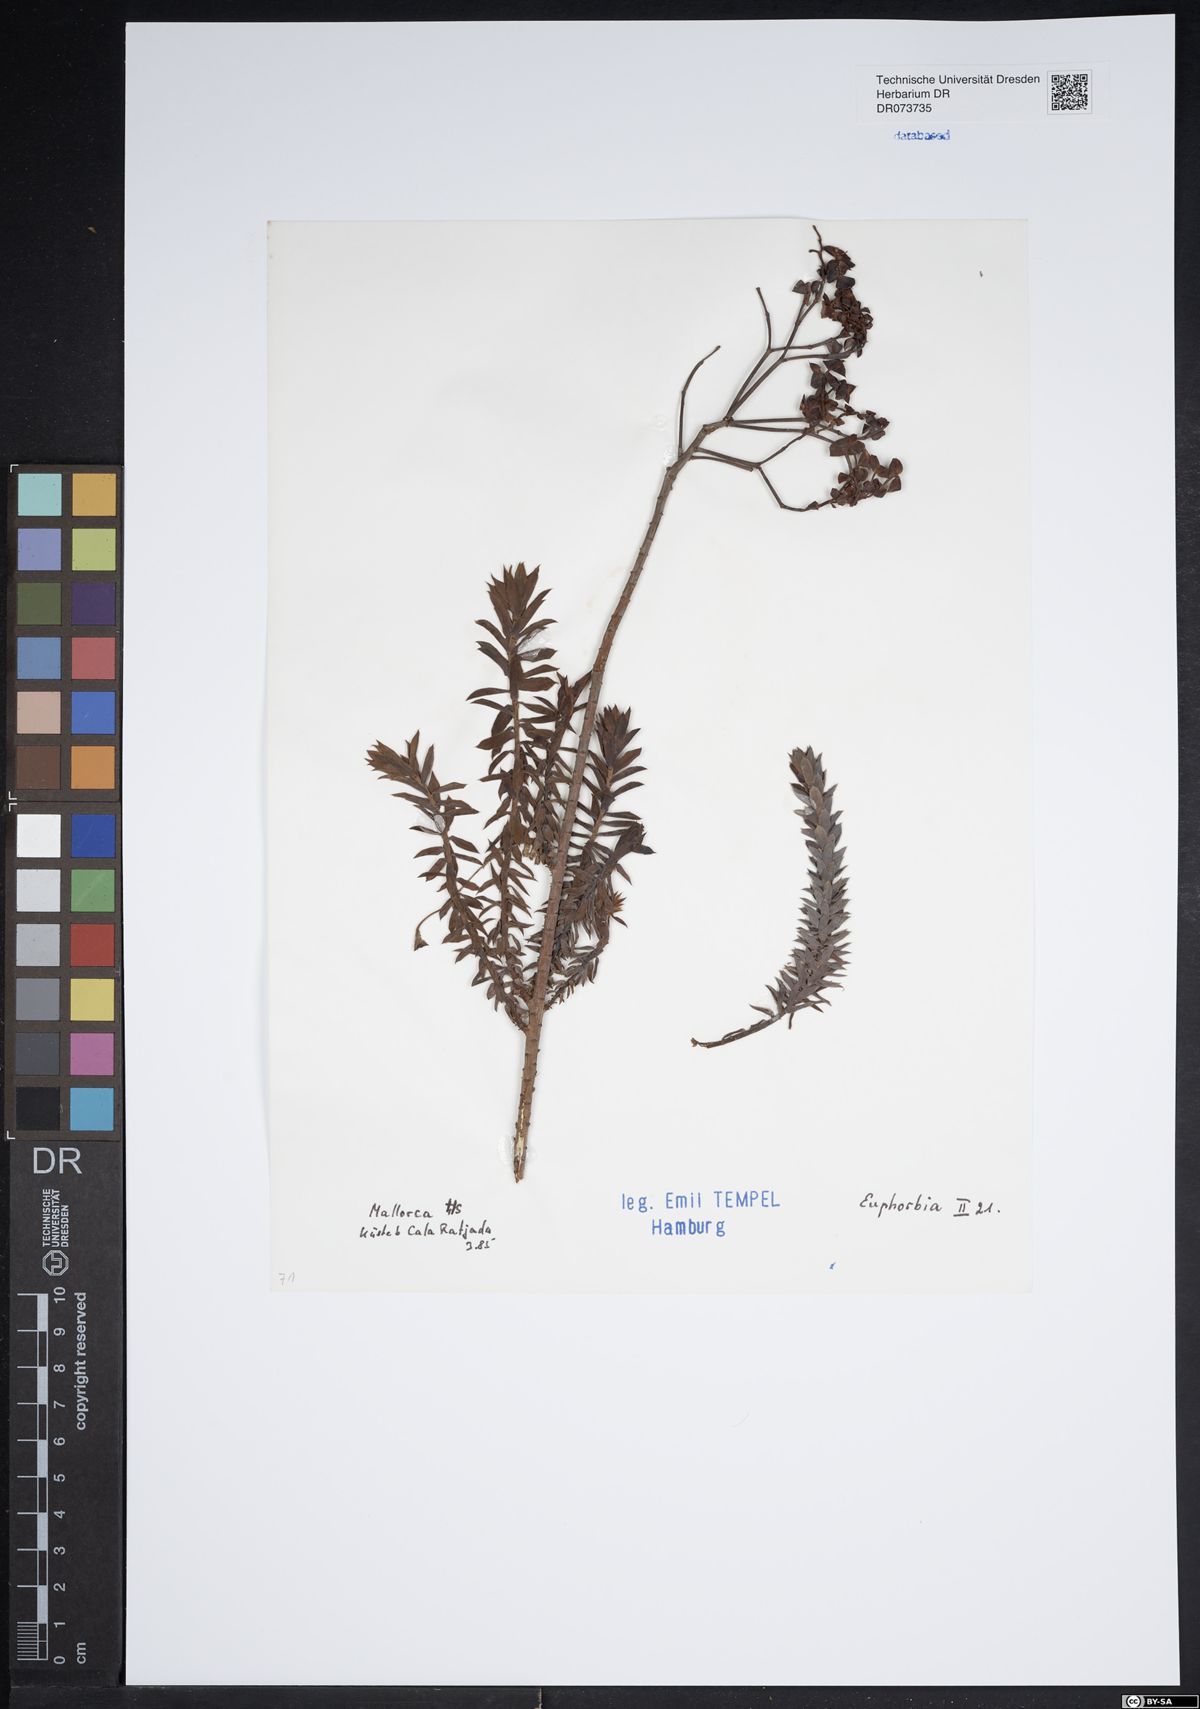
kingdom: Plantae
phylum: Tracheophyta
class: Magnoliopsida
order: Malpighiales
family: Euphorbiaceae
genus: Euphorbia
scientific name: Euphorbia
